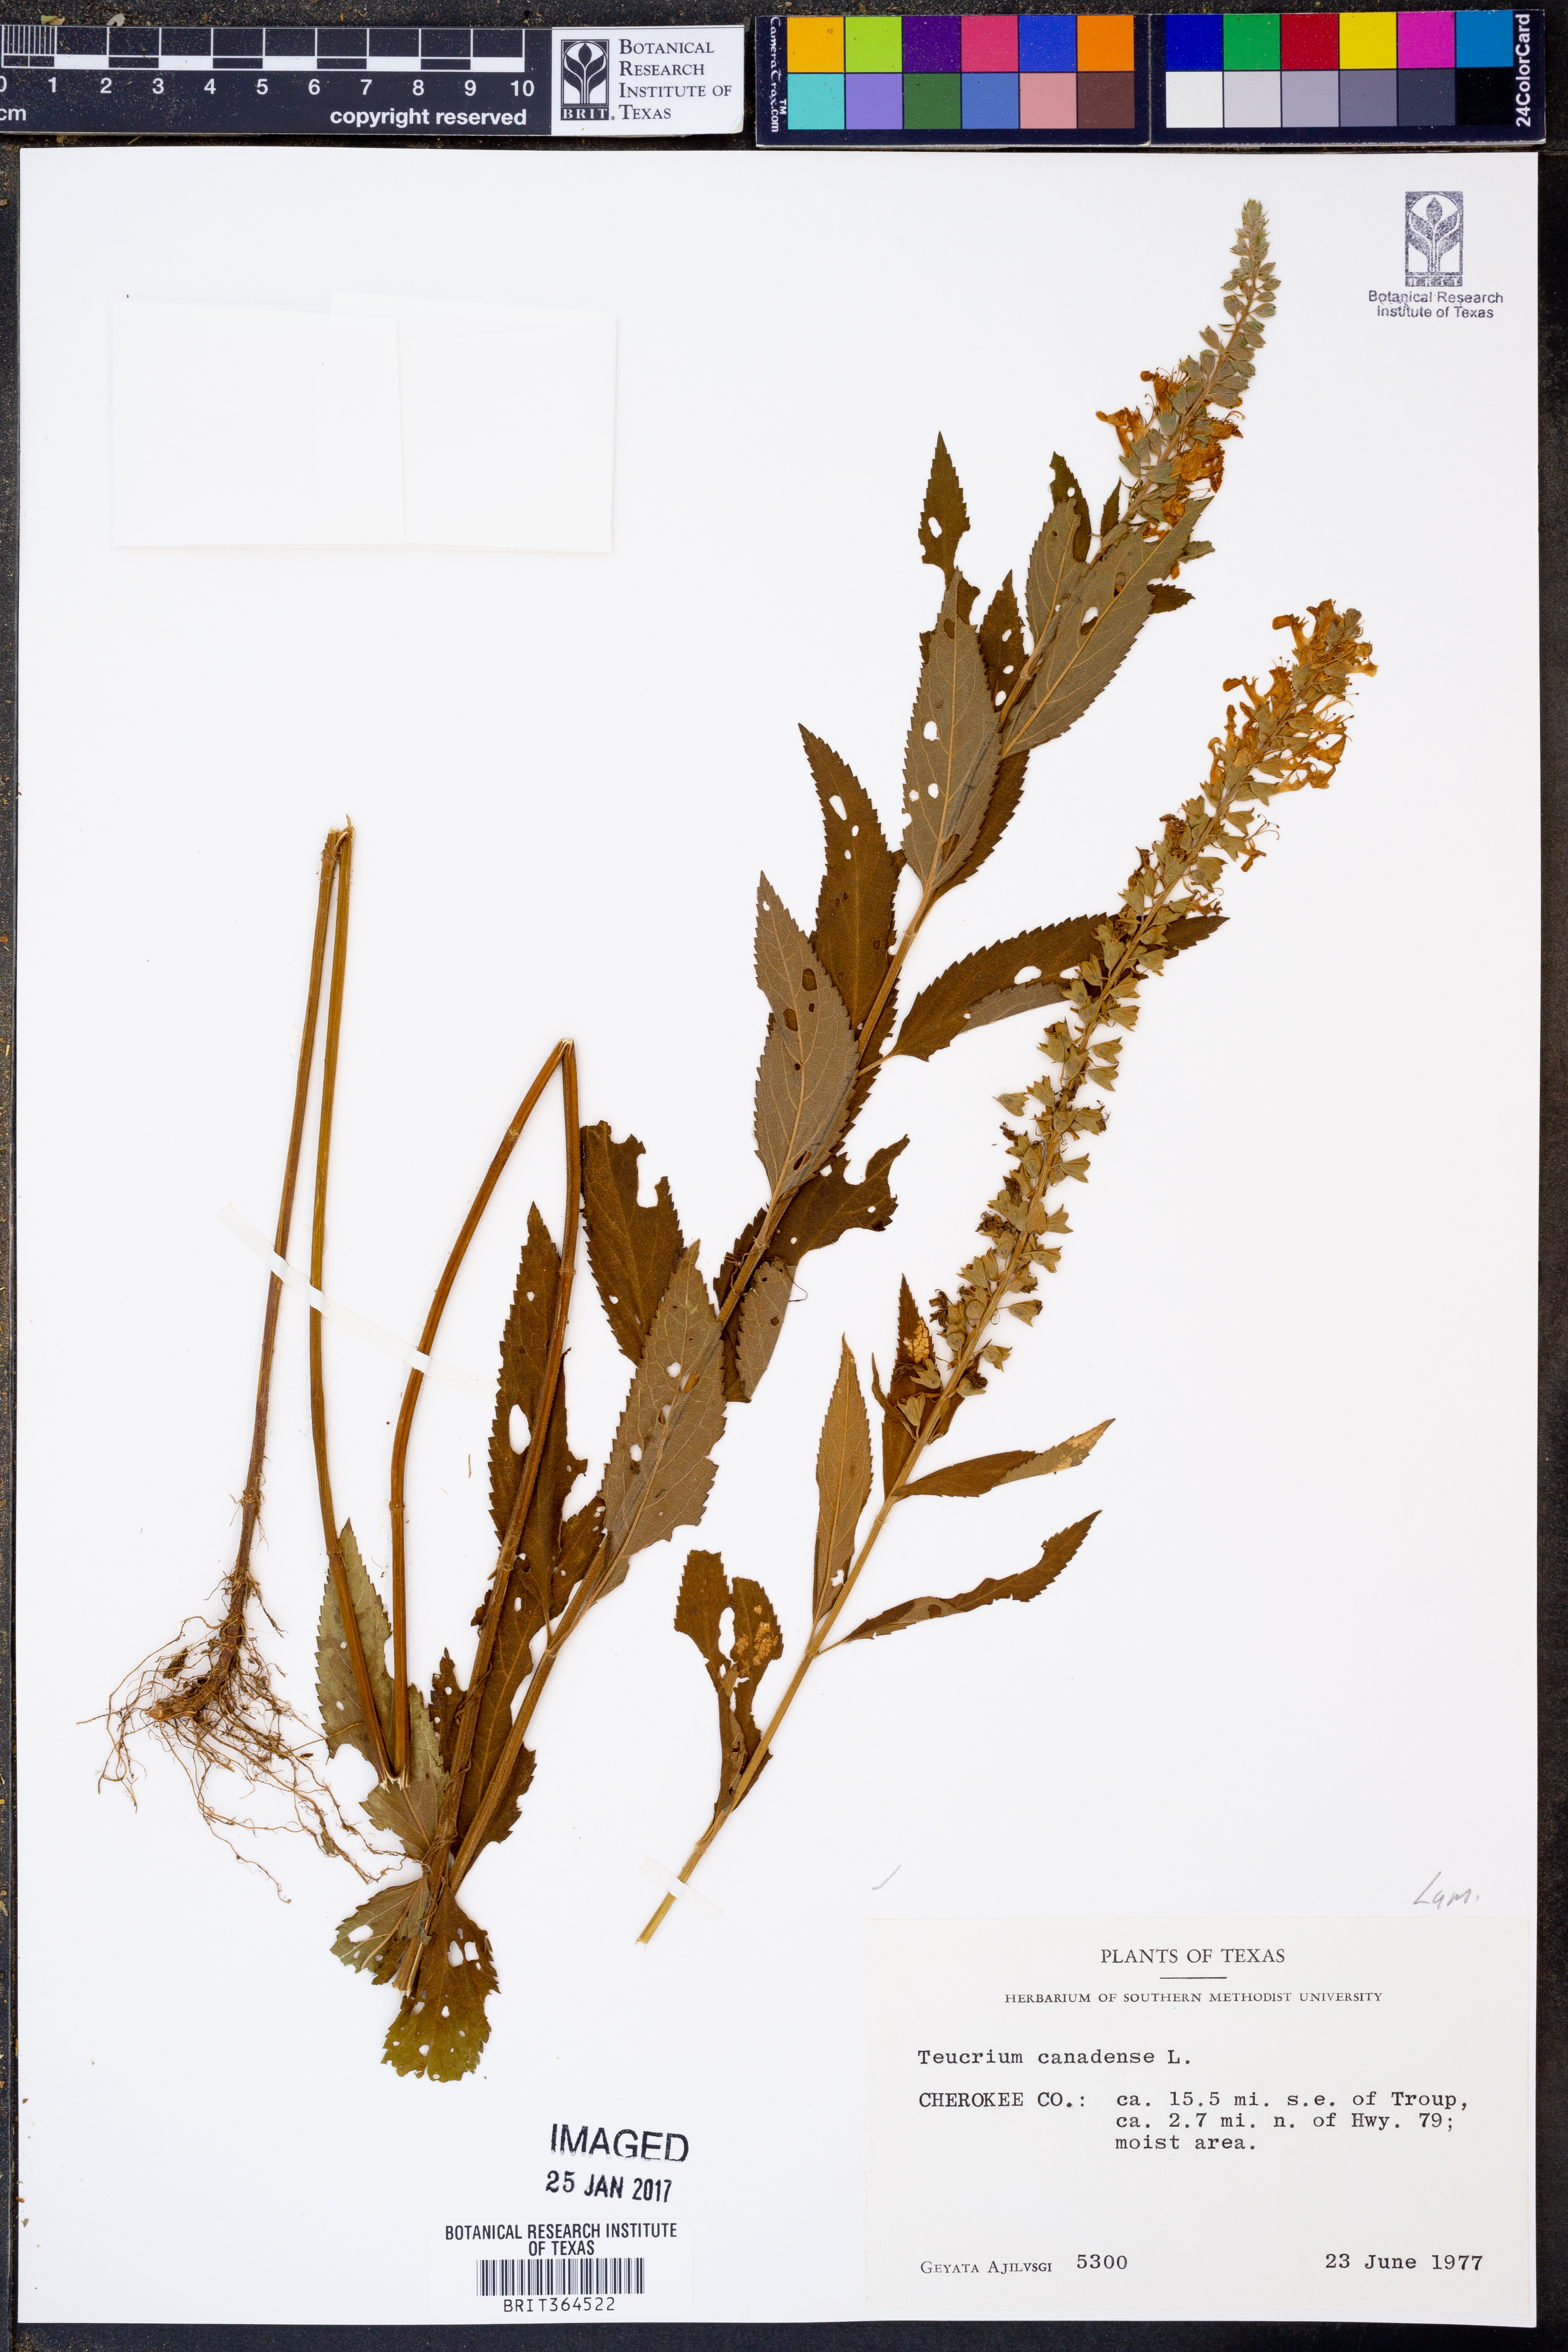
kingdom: Plantae
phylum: Tracheophyta
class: Magnoliopsida
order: Lamiales
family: Lamiaceae
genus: Teucrium
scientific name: Teucrium canadense
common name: American germander
